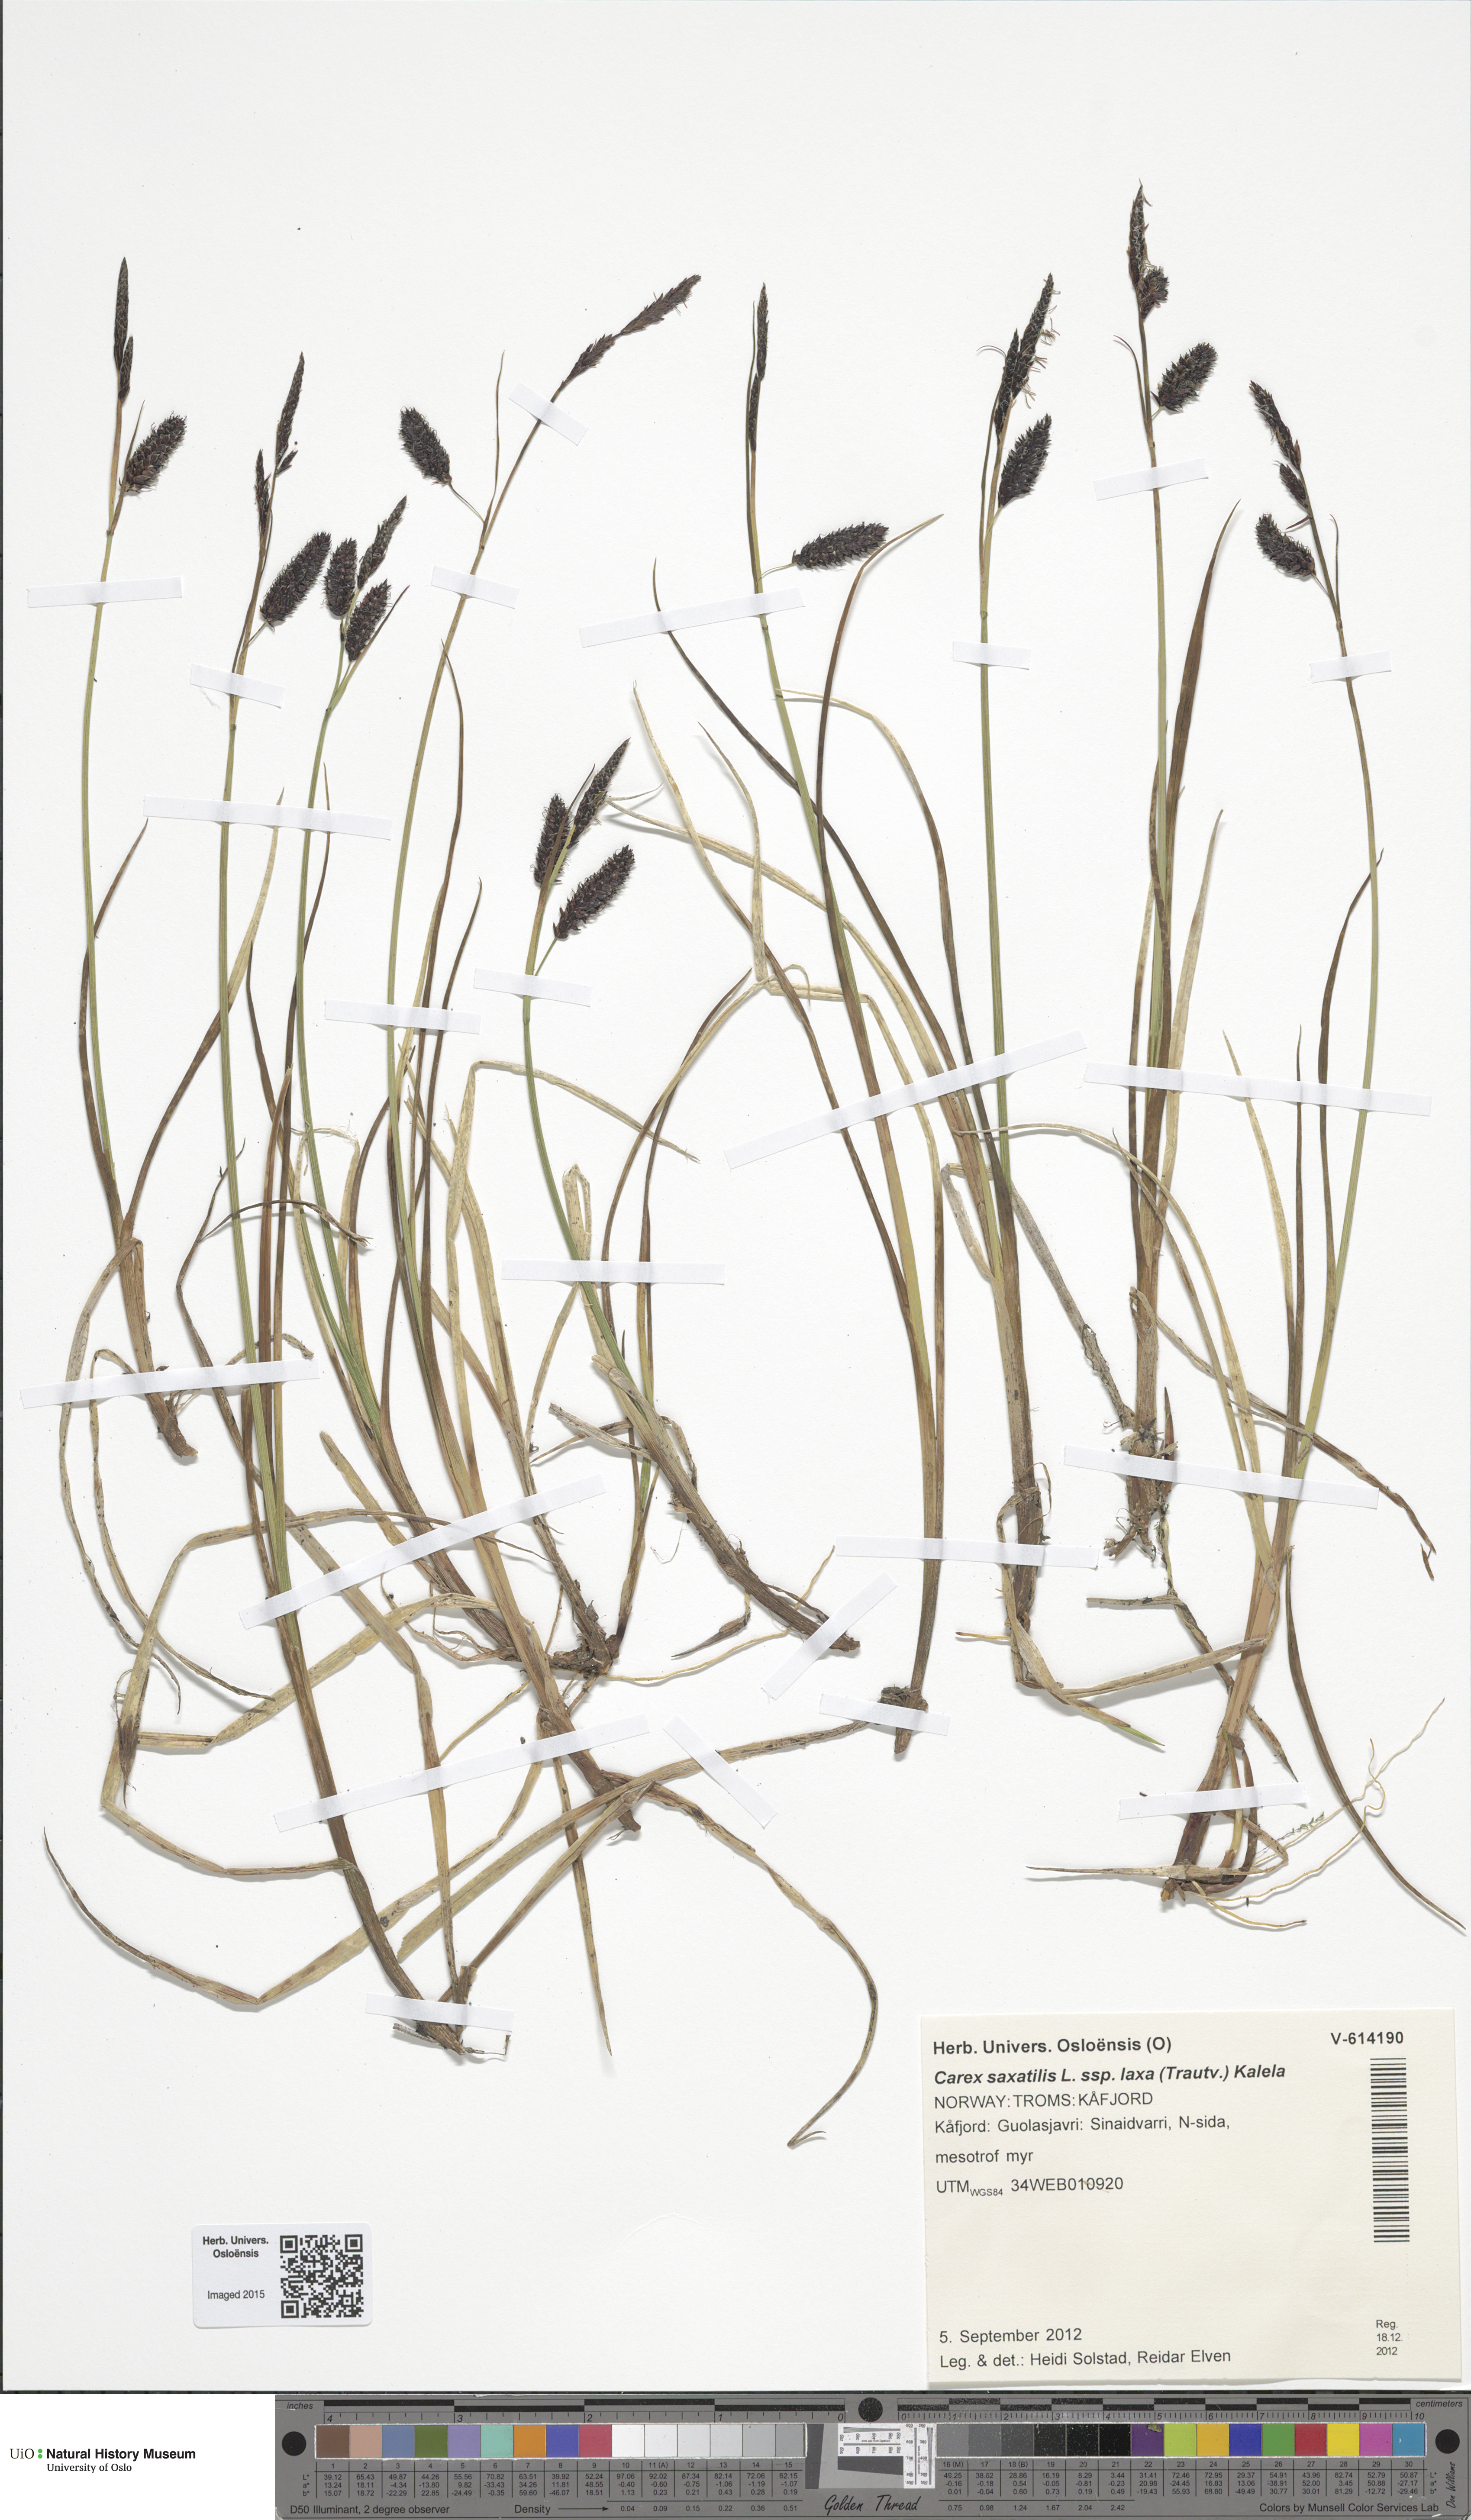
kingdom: Plantae
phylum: Tracheophyta
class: Liliopsida
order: Poales
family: Cyperaceae
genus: Carex
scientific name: Carex saxatilis
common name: Russet sedge
